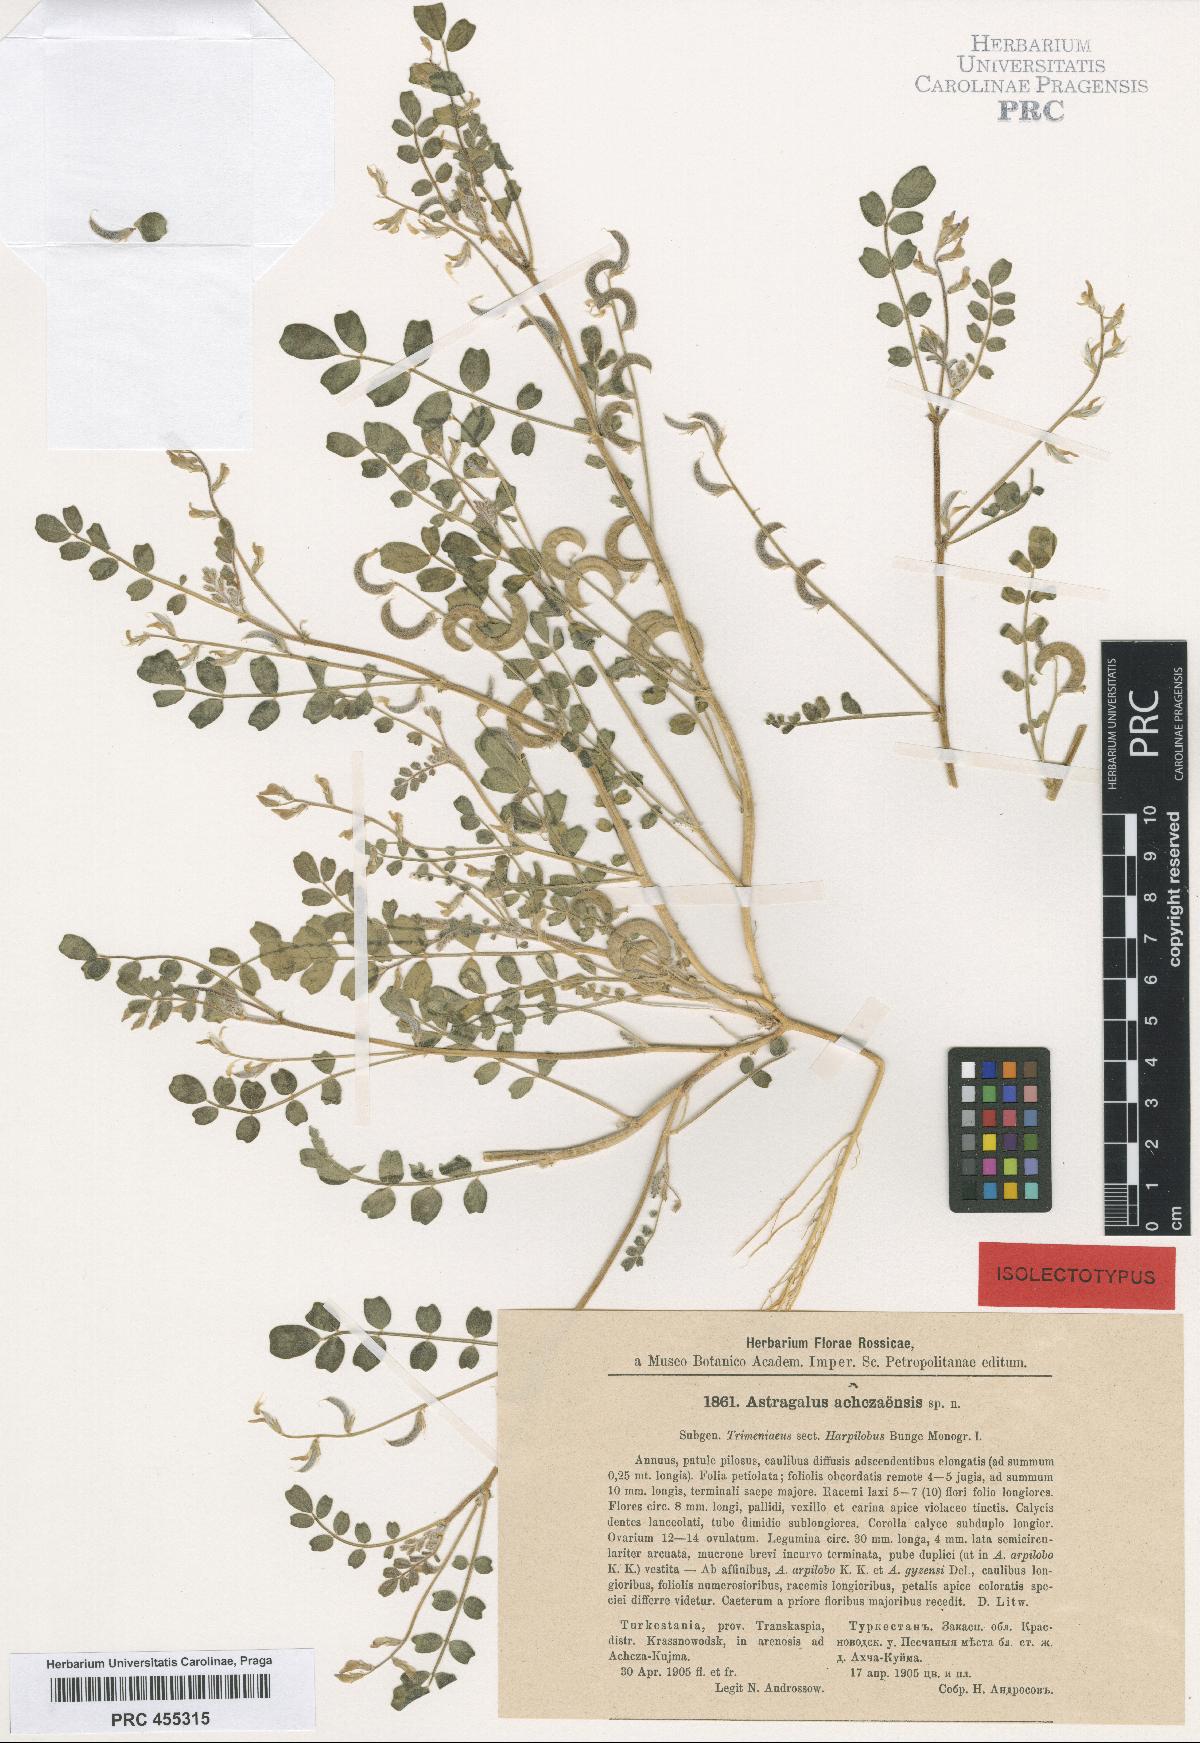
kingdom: Plantae
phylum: Tracheophyta
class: Magnoliopsida
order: Fabales
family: Fabaceae
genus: Astragalus
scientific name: Astragalus arpilobus
